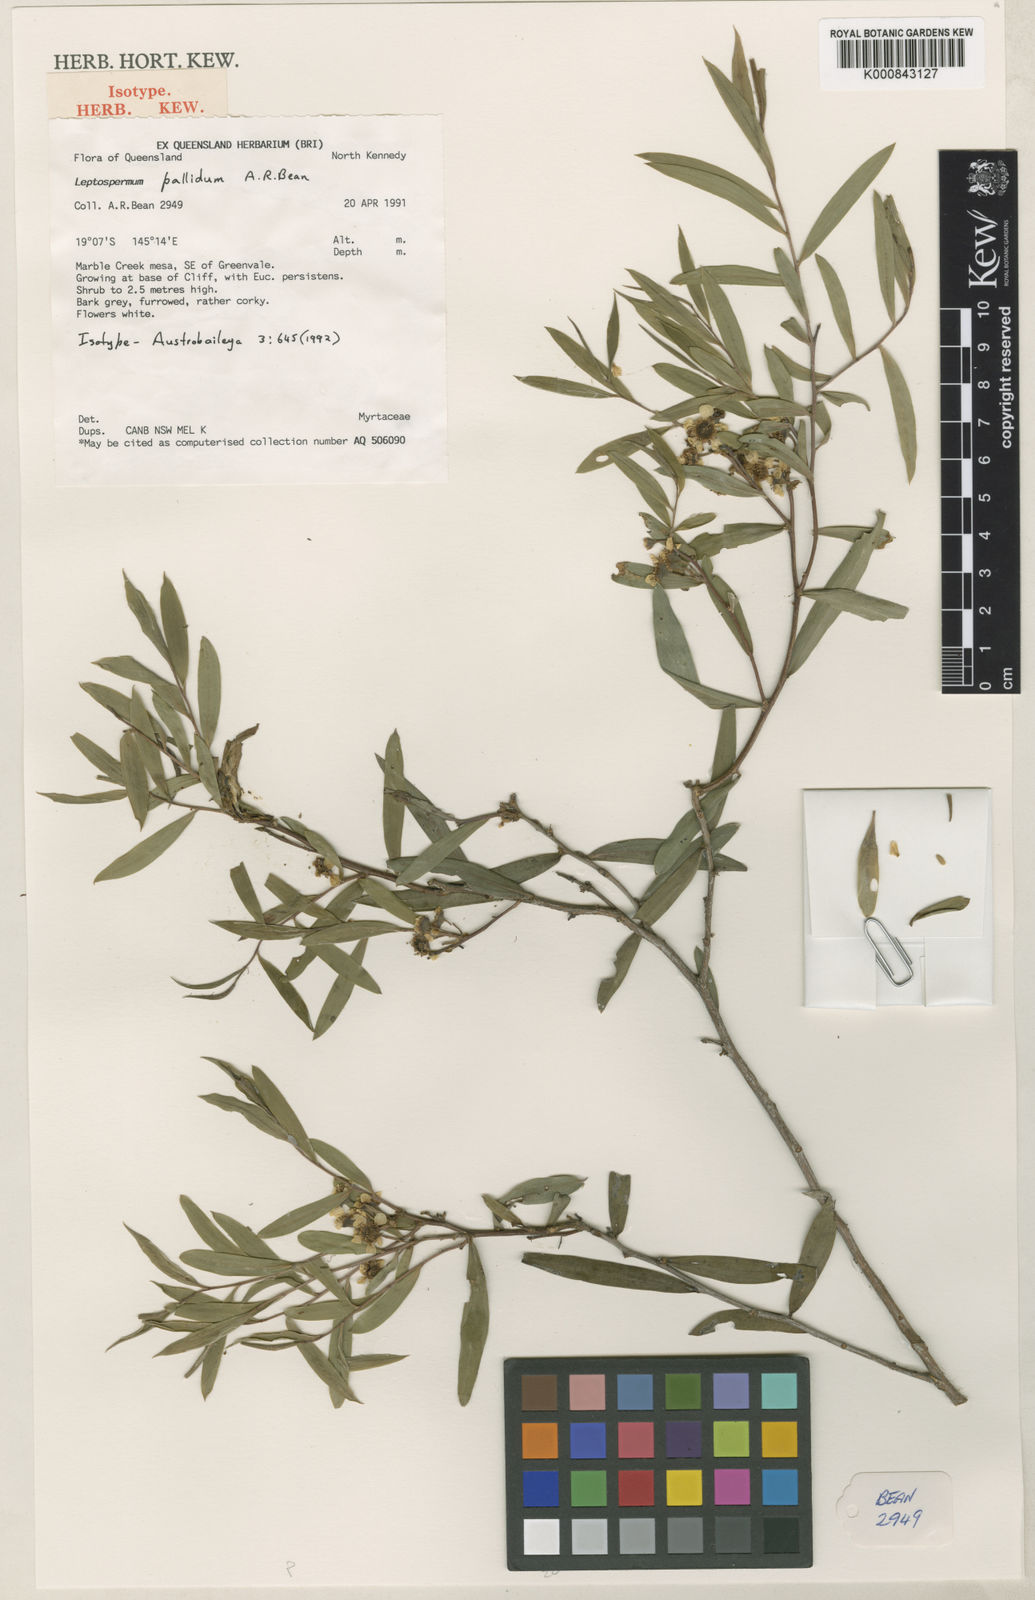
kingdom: Plantae
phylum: Tracheophyta
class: Magnoliopsida
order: Myrtales
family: Myrtaceae
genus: Leptospermum
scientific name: Leptospermum pallidum
